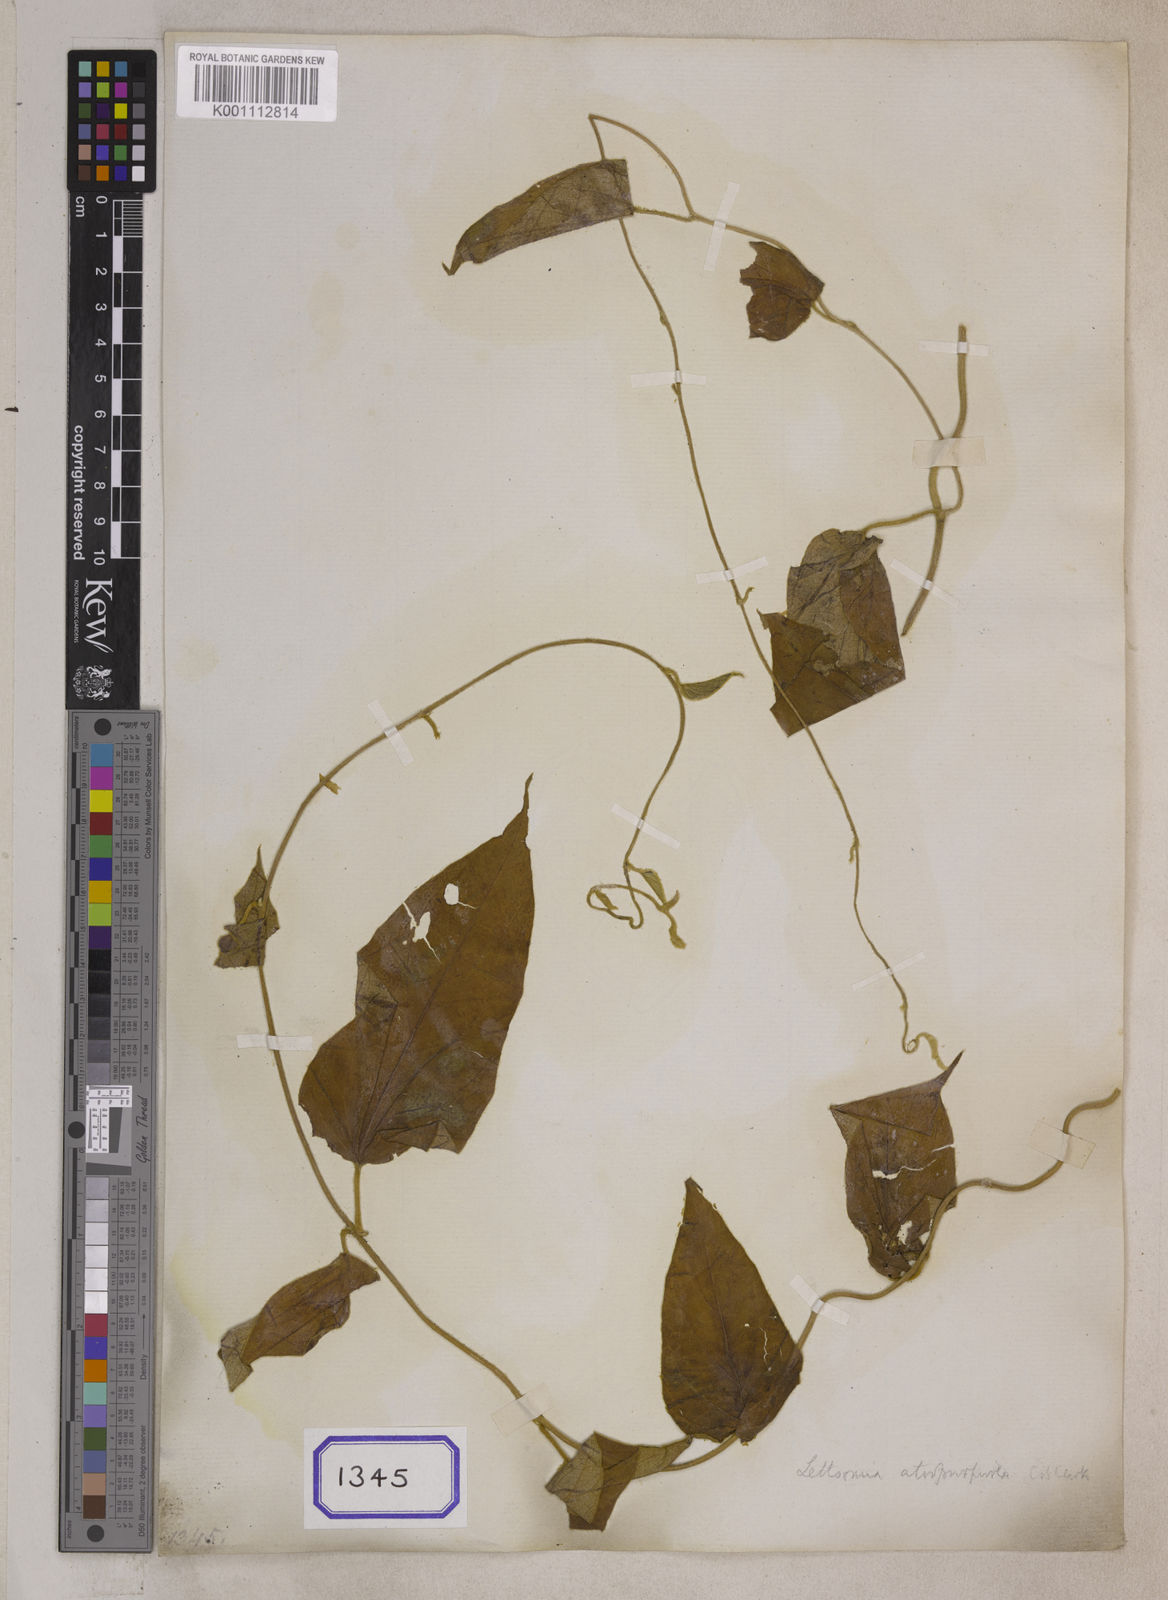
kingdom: Plantae
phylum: Tracheophyta
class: Magnoliopsida
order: Solanales
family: Convolvulaceae
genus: Argyreia
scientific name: Argyreia atropurpurea
